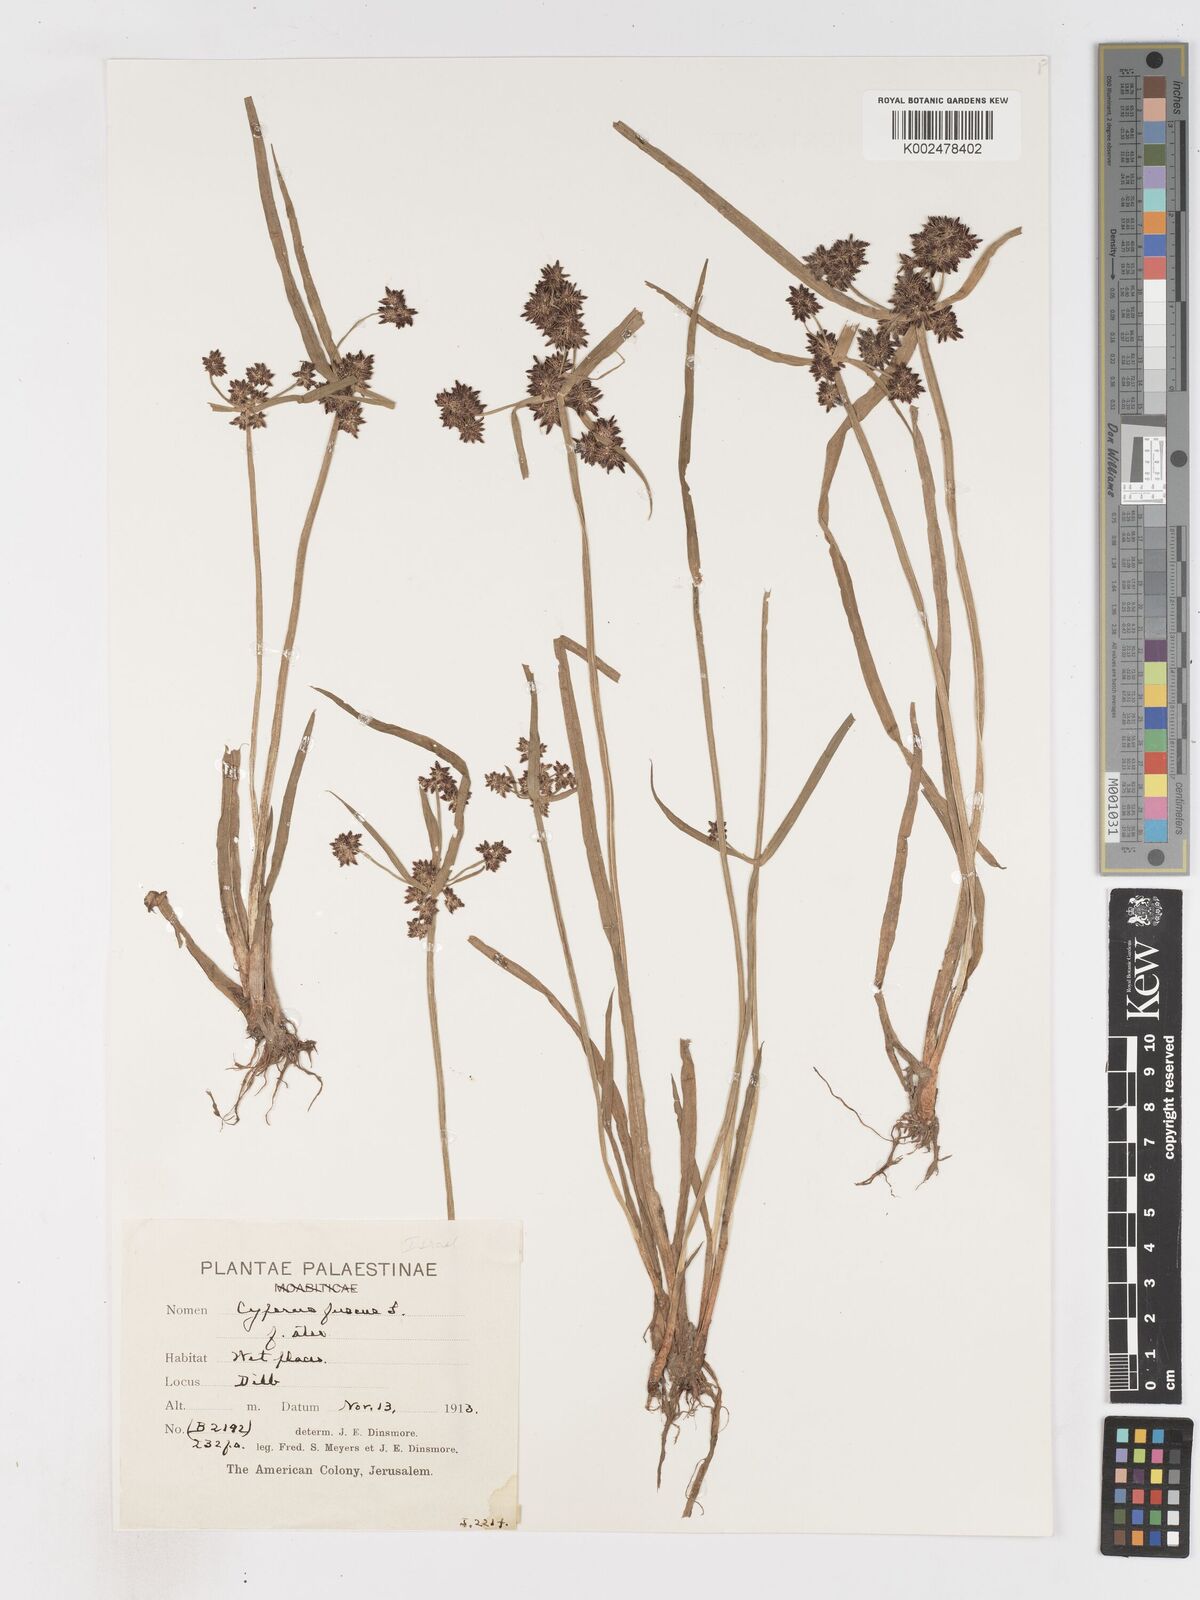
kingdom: Plantae
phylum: Tracheophyta
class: Liliopsida
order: Poales
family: Cyperaceae
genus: Cyperus
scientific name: Cyperus fuscus
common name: Brown galingale
